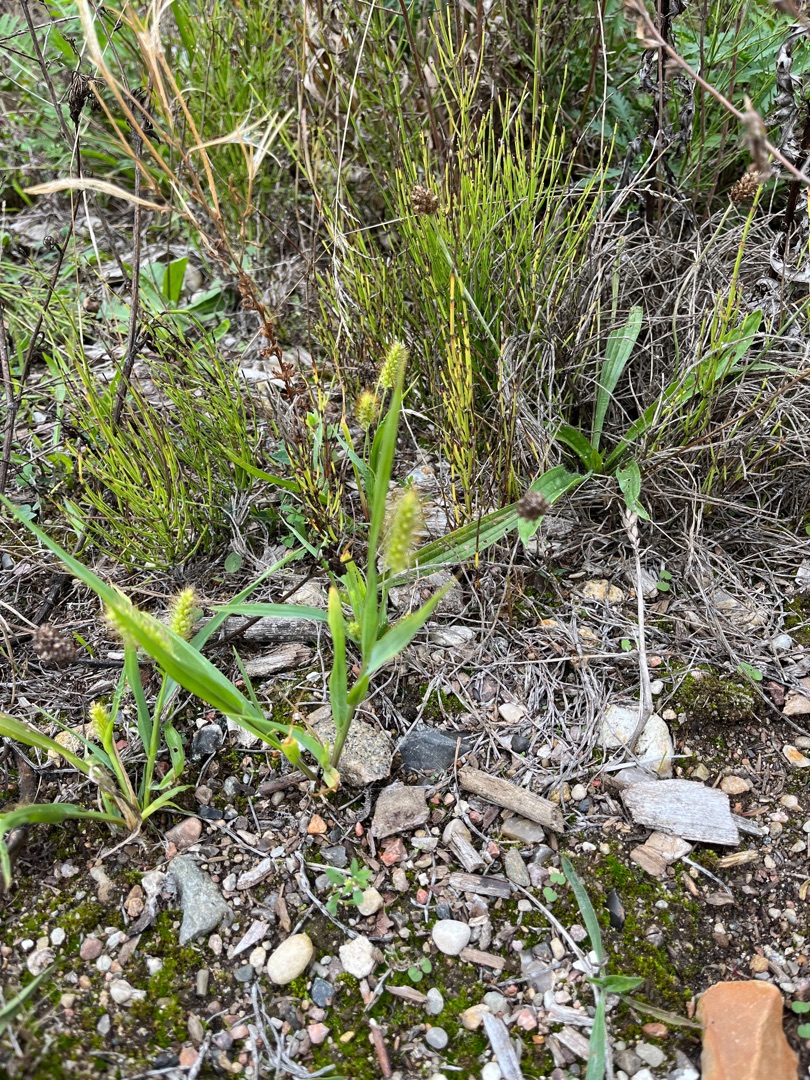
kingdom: Plantae
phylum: Tracheophyta
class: Liliopsida
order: Poales
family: Poaceae
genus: Setaria
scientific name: Setaria pumila
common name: Blågrøn skærmaks
